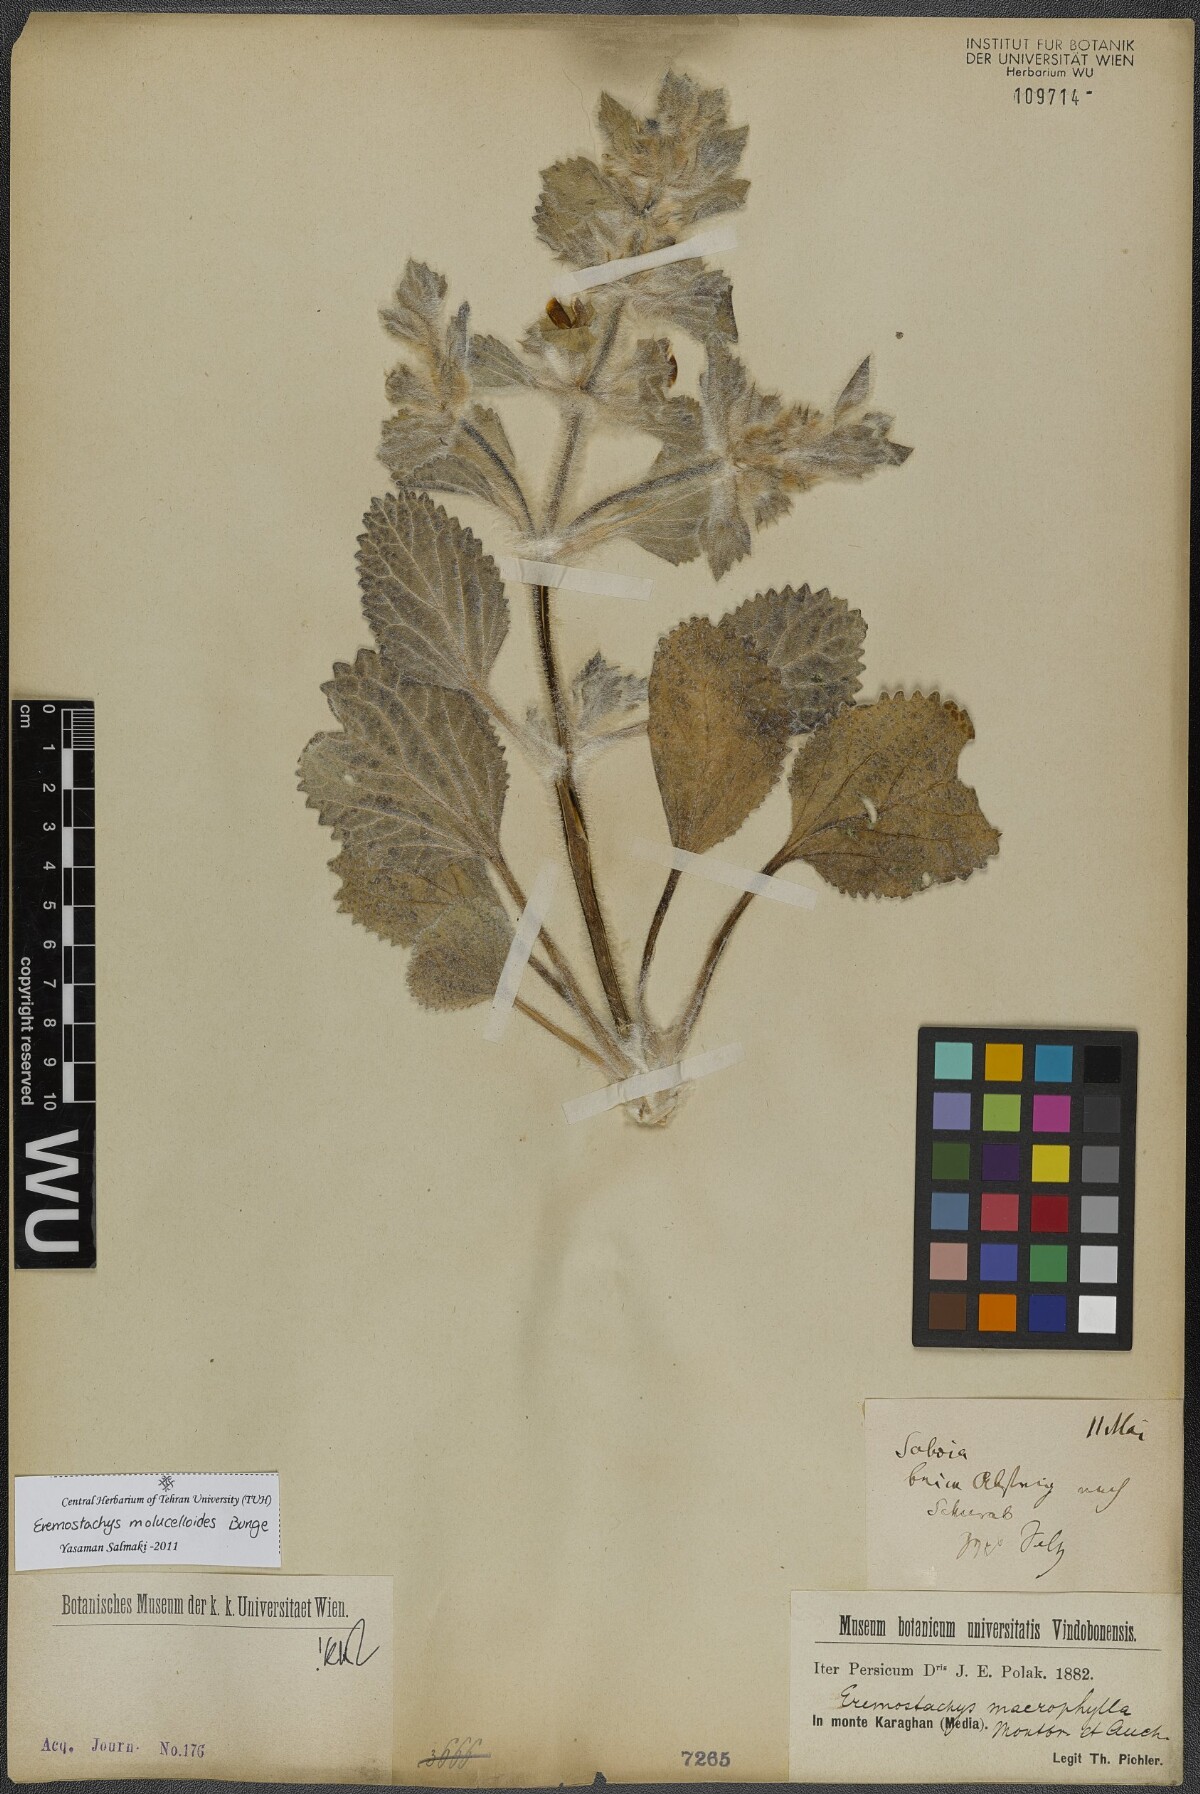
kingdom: Plantae
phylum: Tracheophyta
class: Magnoliopsida
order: Lamiales
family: Lamiaceae
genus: Phlomoides
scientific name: Phlomoides molucelloides
